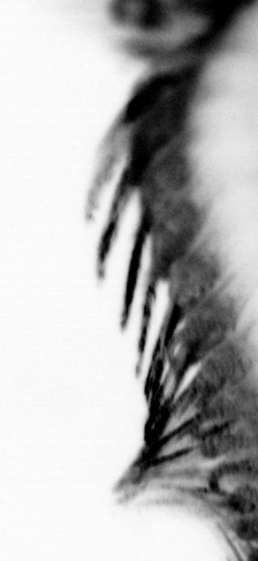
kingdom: Animalia
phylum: Annelida
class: Polychaeta
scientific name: Polychaeta
